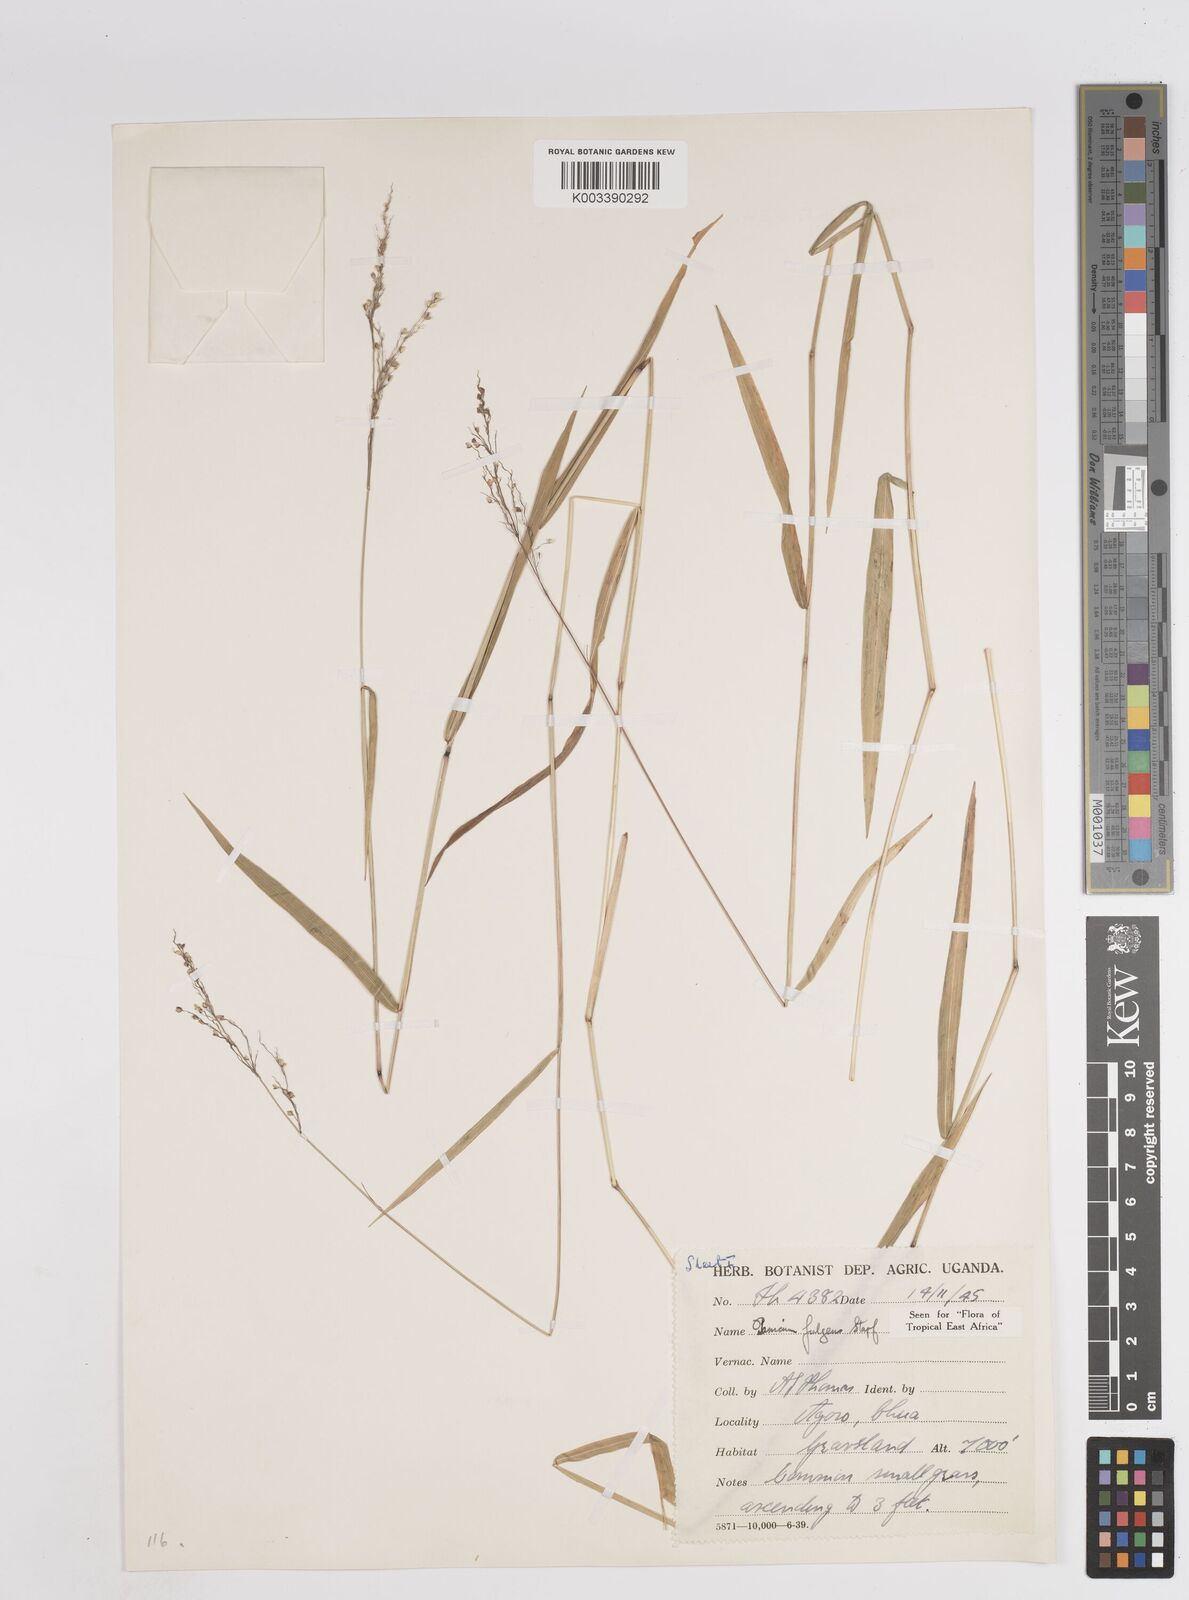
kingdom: Plantae
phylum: Tracheophyta
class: Liliopsida
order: Poales
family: Poaceae
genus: Trichanthecium
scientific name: Trichanthecium nervatum
